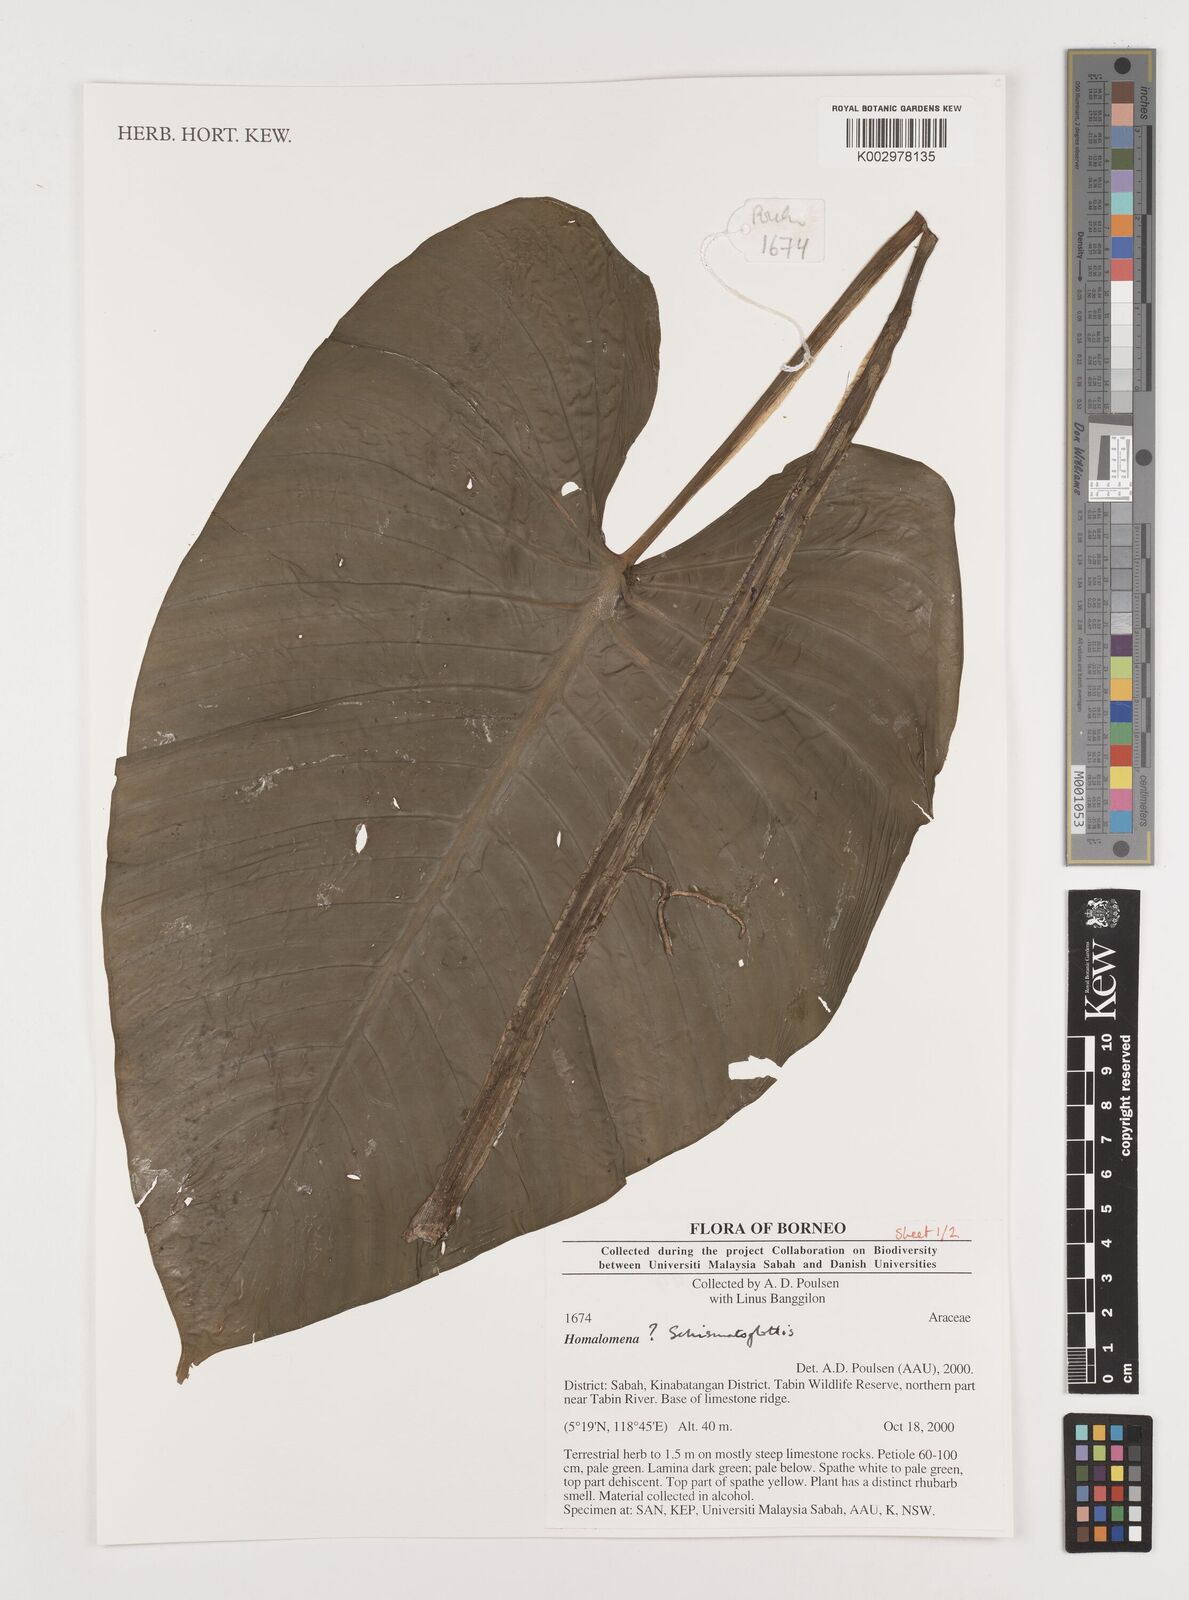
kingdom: Plantae
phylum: Tracheophyta
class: Liliopsida
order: Alismatales
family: Araceae
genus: Schismatoglottis
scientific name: Schismatoglottis
